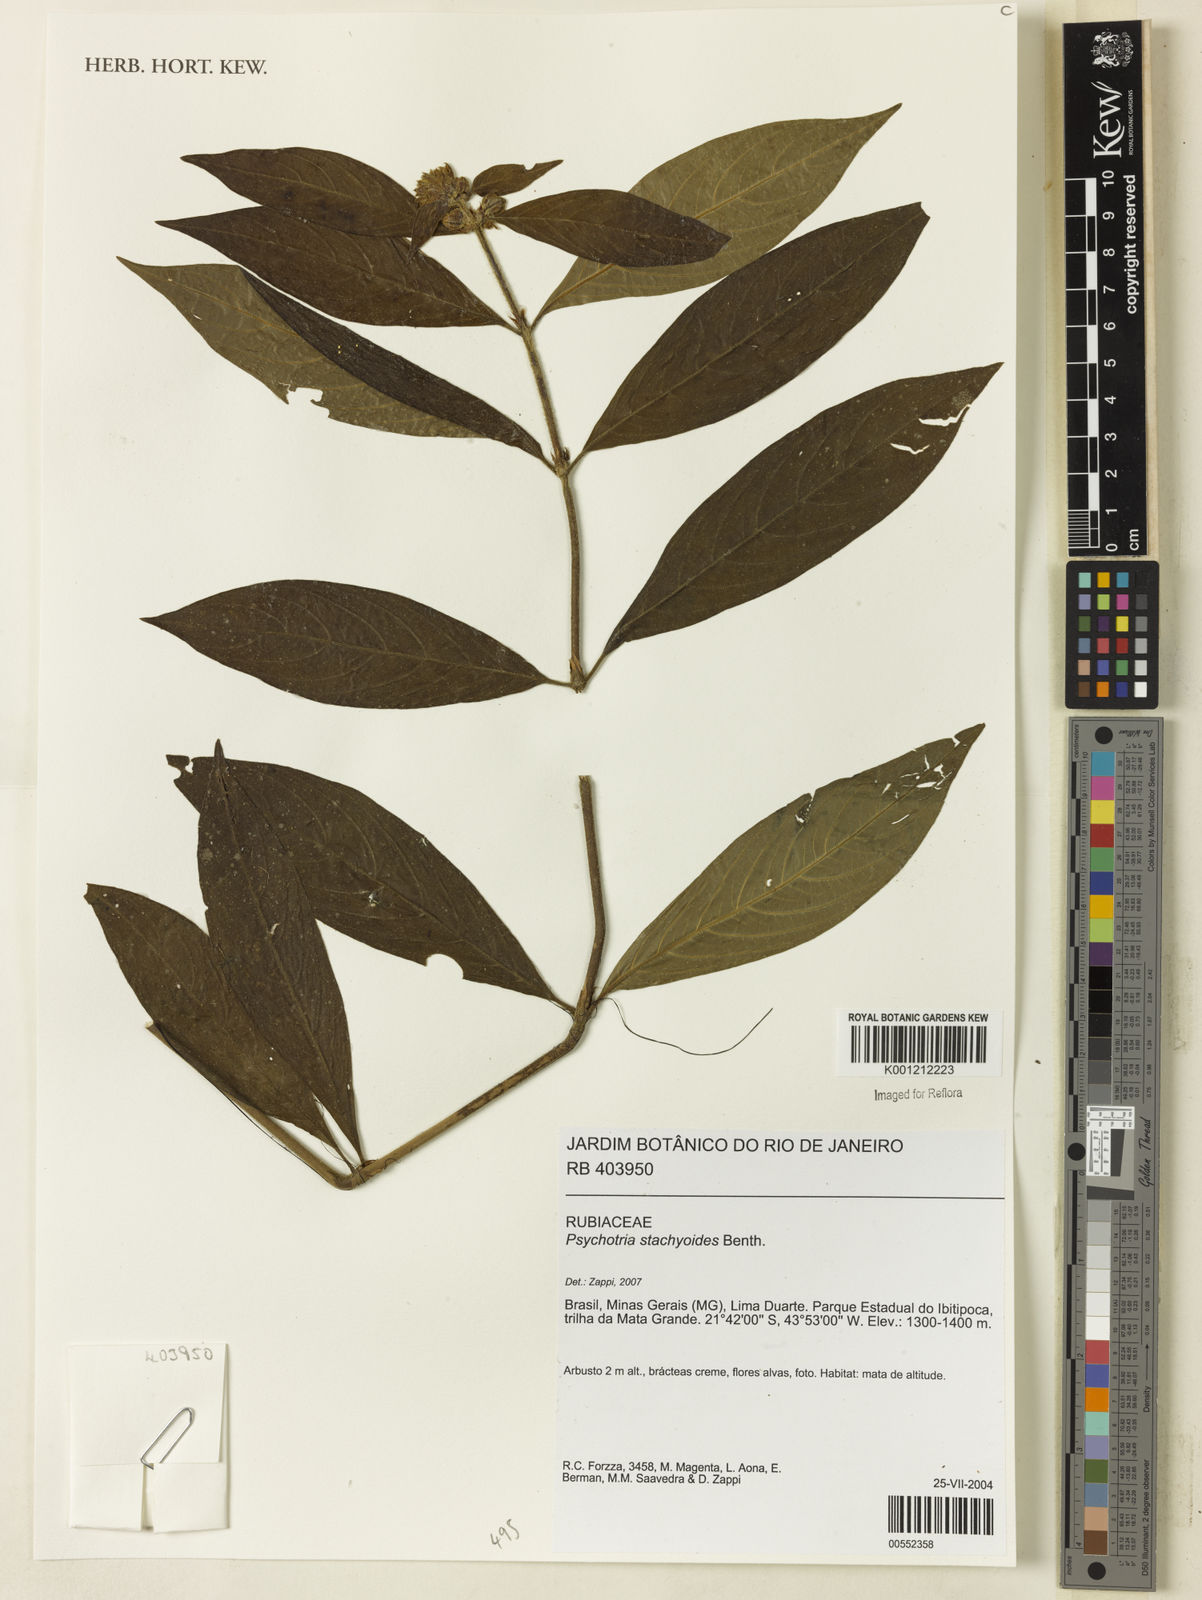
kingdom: Plantae
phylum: Tracheophyta
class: Magnoliopsida
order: Gentianales
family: Rubiaceae
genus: Psychotria
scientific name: Psychotria stachyoides
